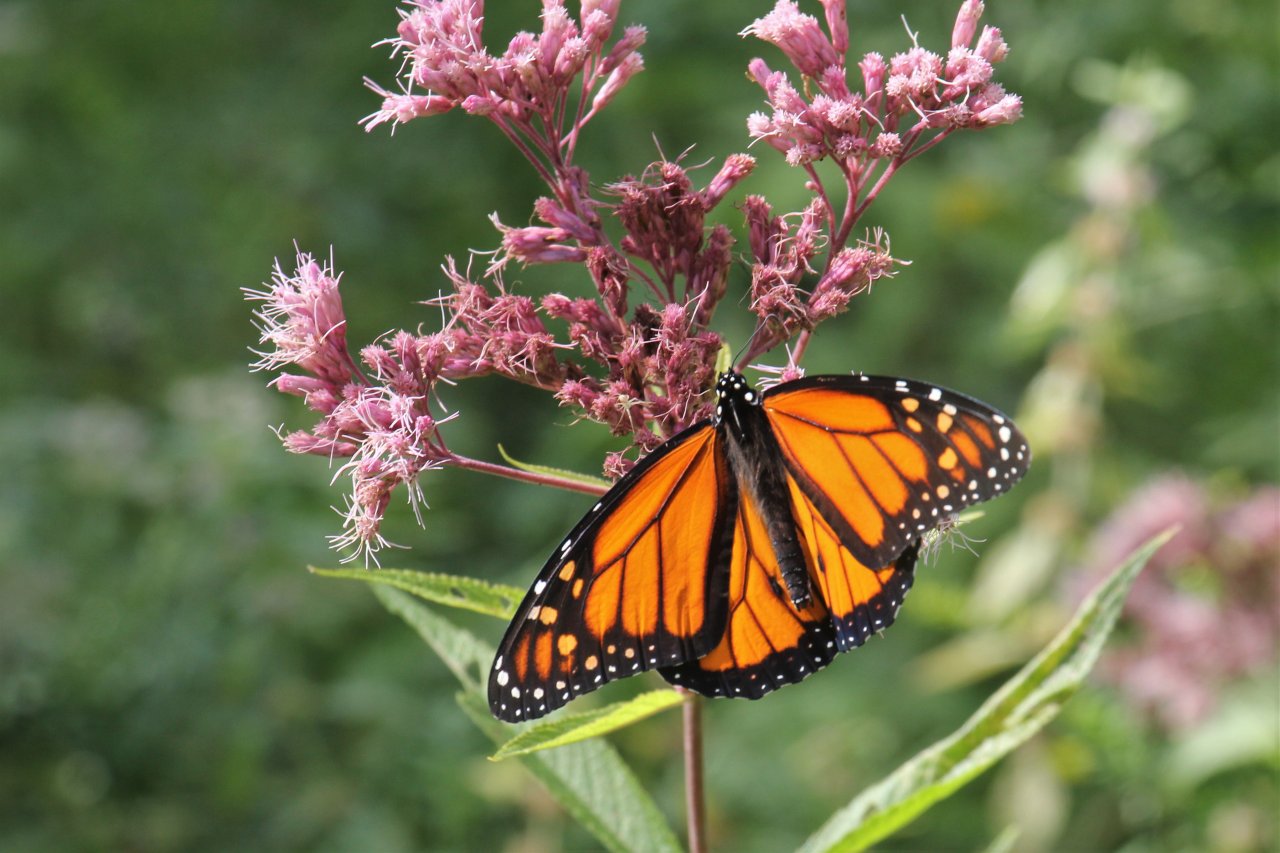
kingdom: Animalia
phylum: Arthropoda
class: Insecta
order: Lepidoptera
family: Nymphalidae
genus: Danaus
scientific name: Danaus plexippus
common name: Monarch
